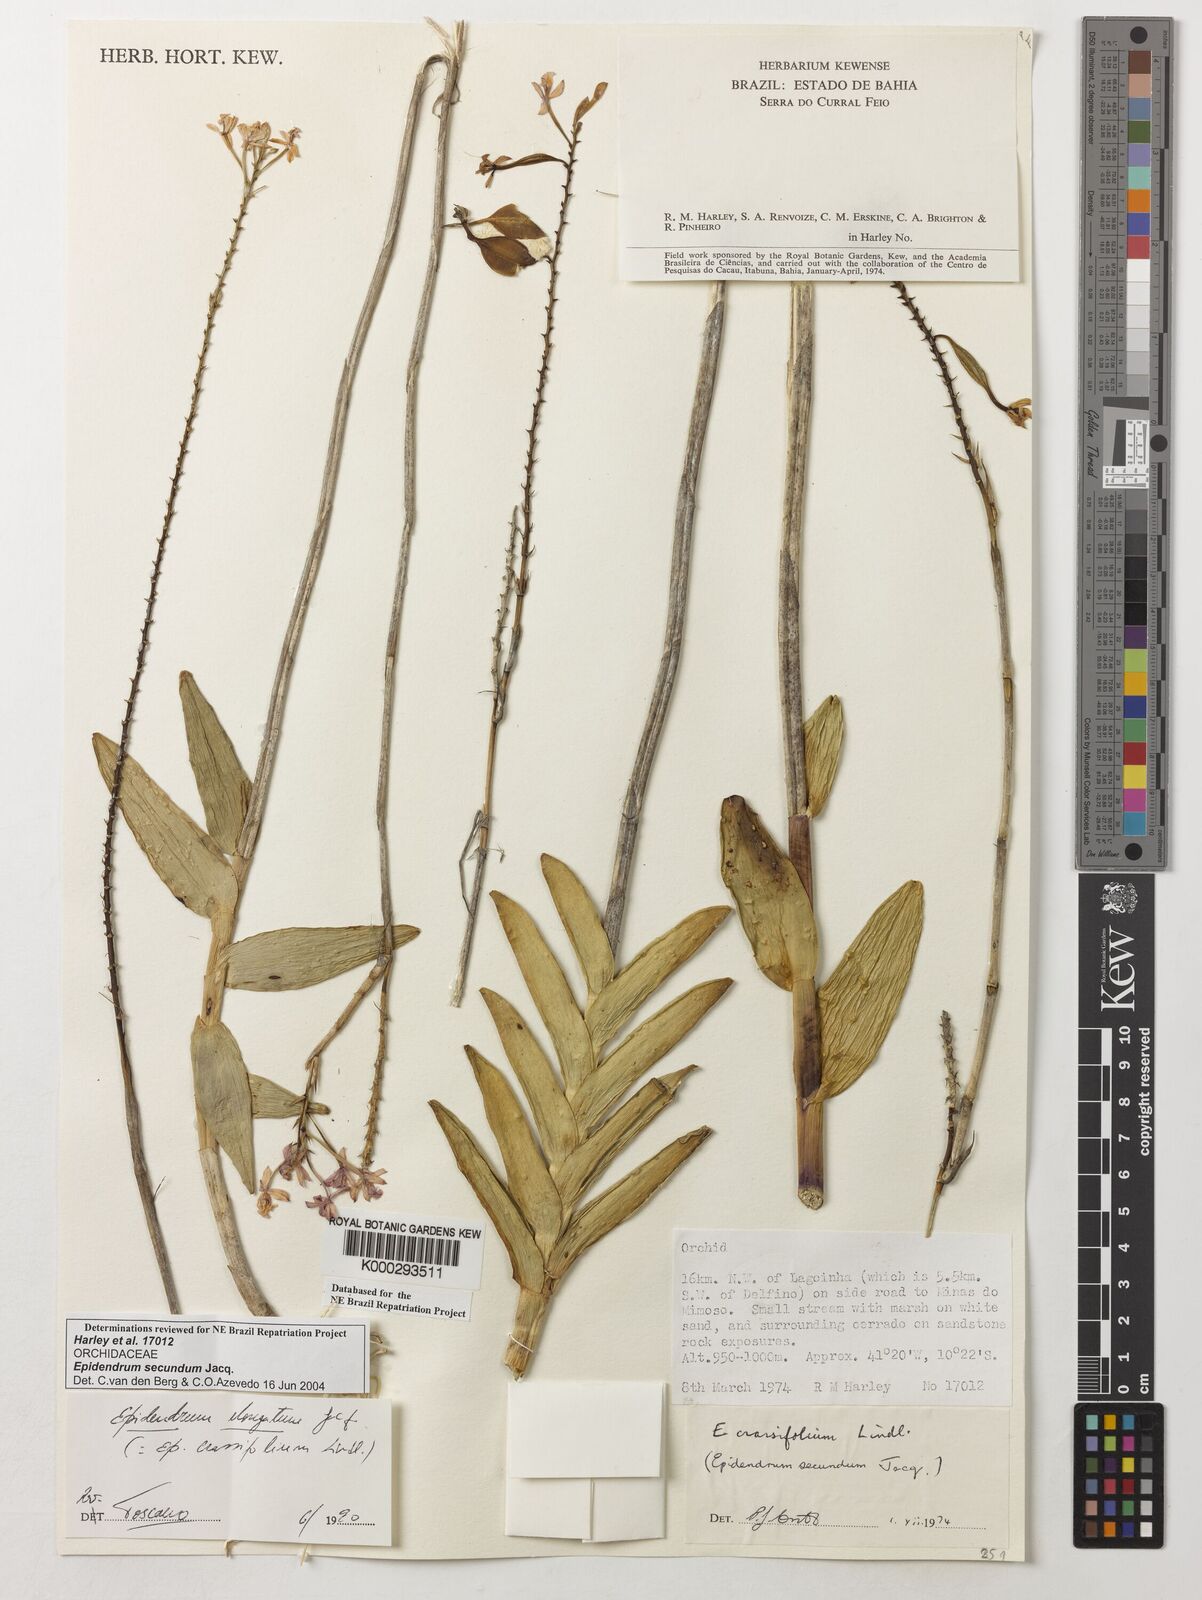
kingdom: Plantae
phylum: Tracheophyta
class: Liliopsida
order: Asparagales
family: Orchidaceae
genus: Epidendrum
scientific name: Epidendrum secundum
